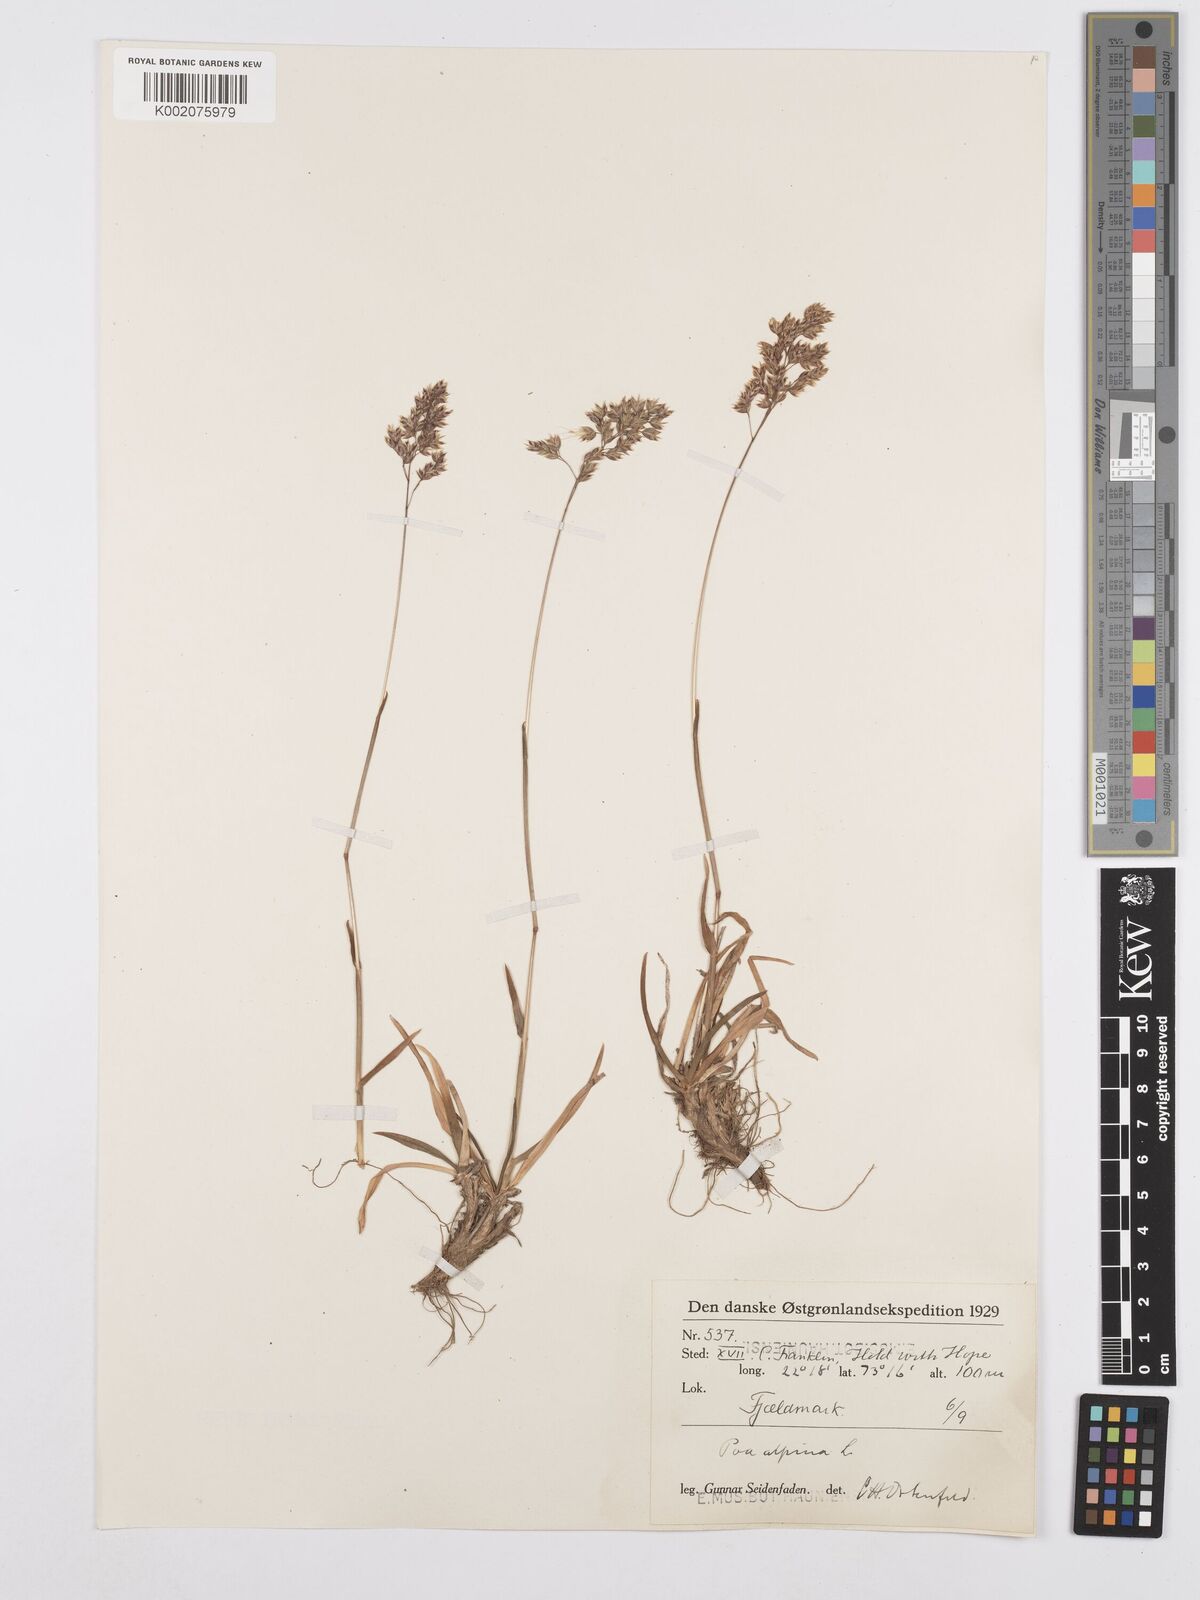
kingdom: Plantae
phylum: Tracheophyta
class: Liliopsida
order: Poales
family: Poaceae
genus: Poa
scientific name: Poa alpina
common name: Alpine bluegrass
